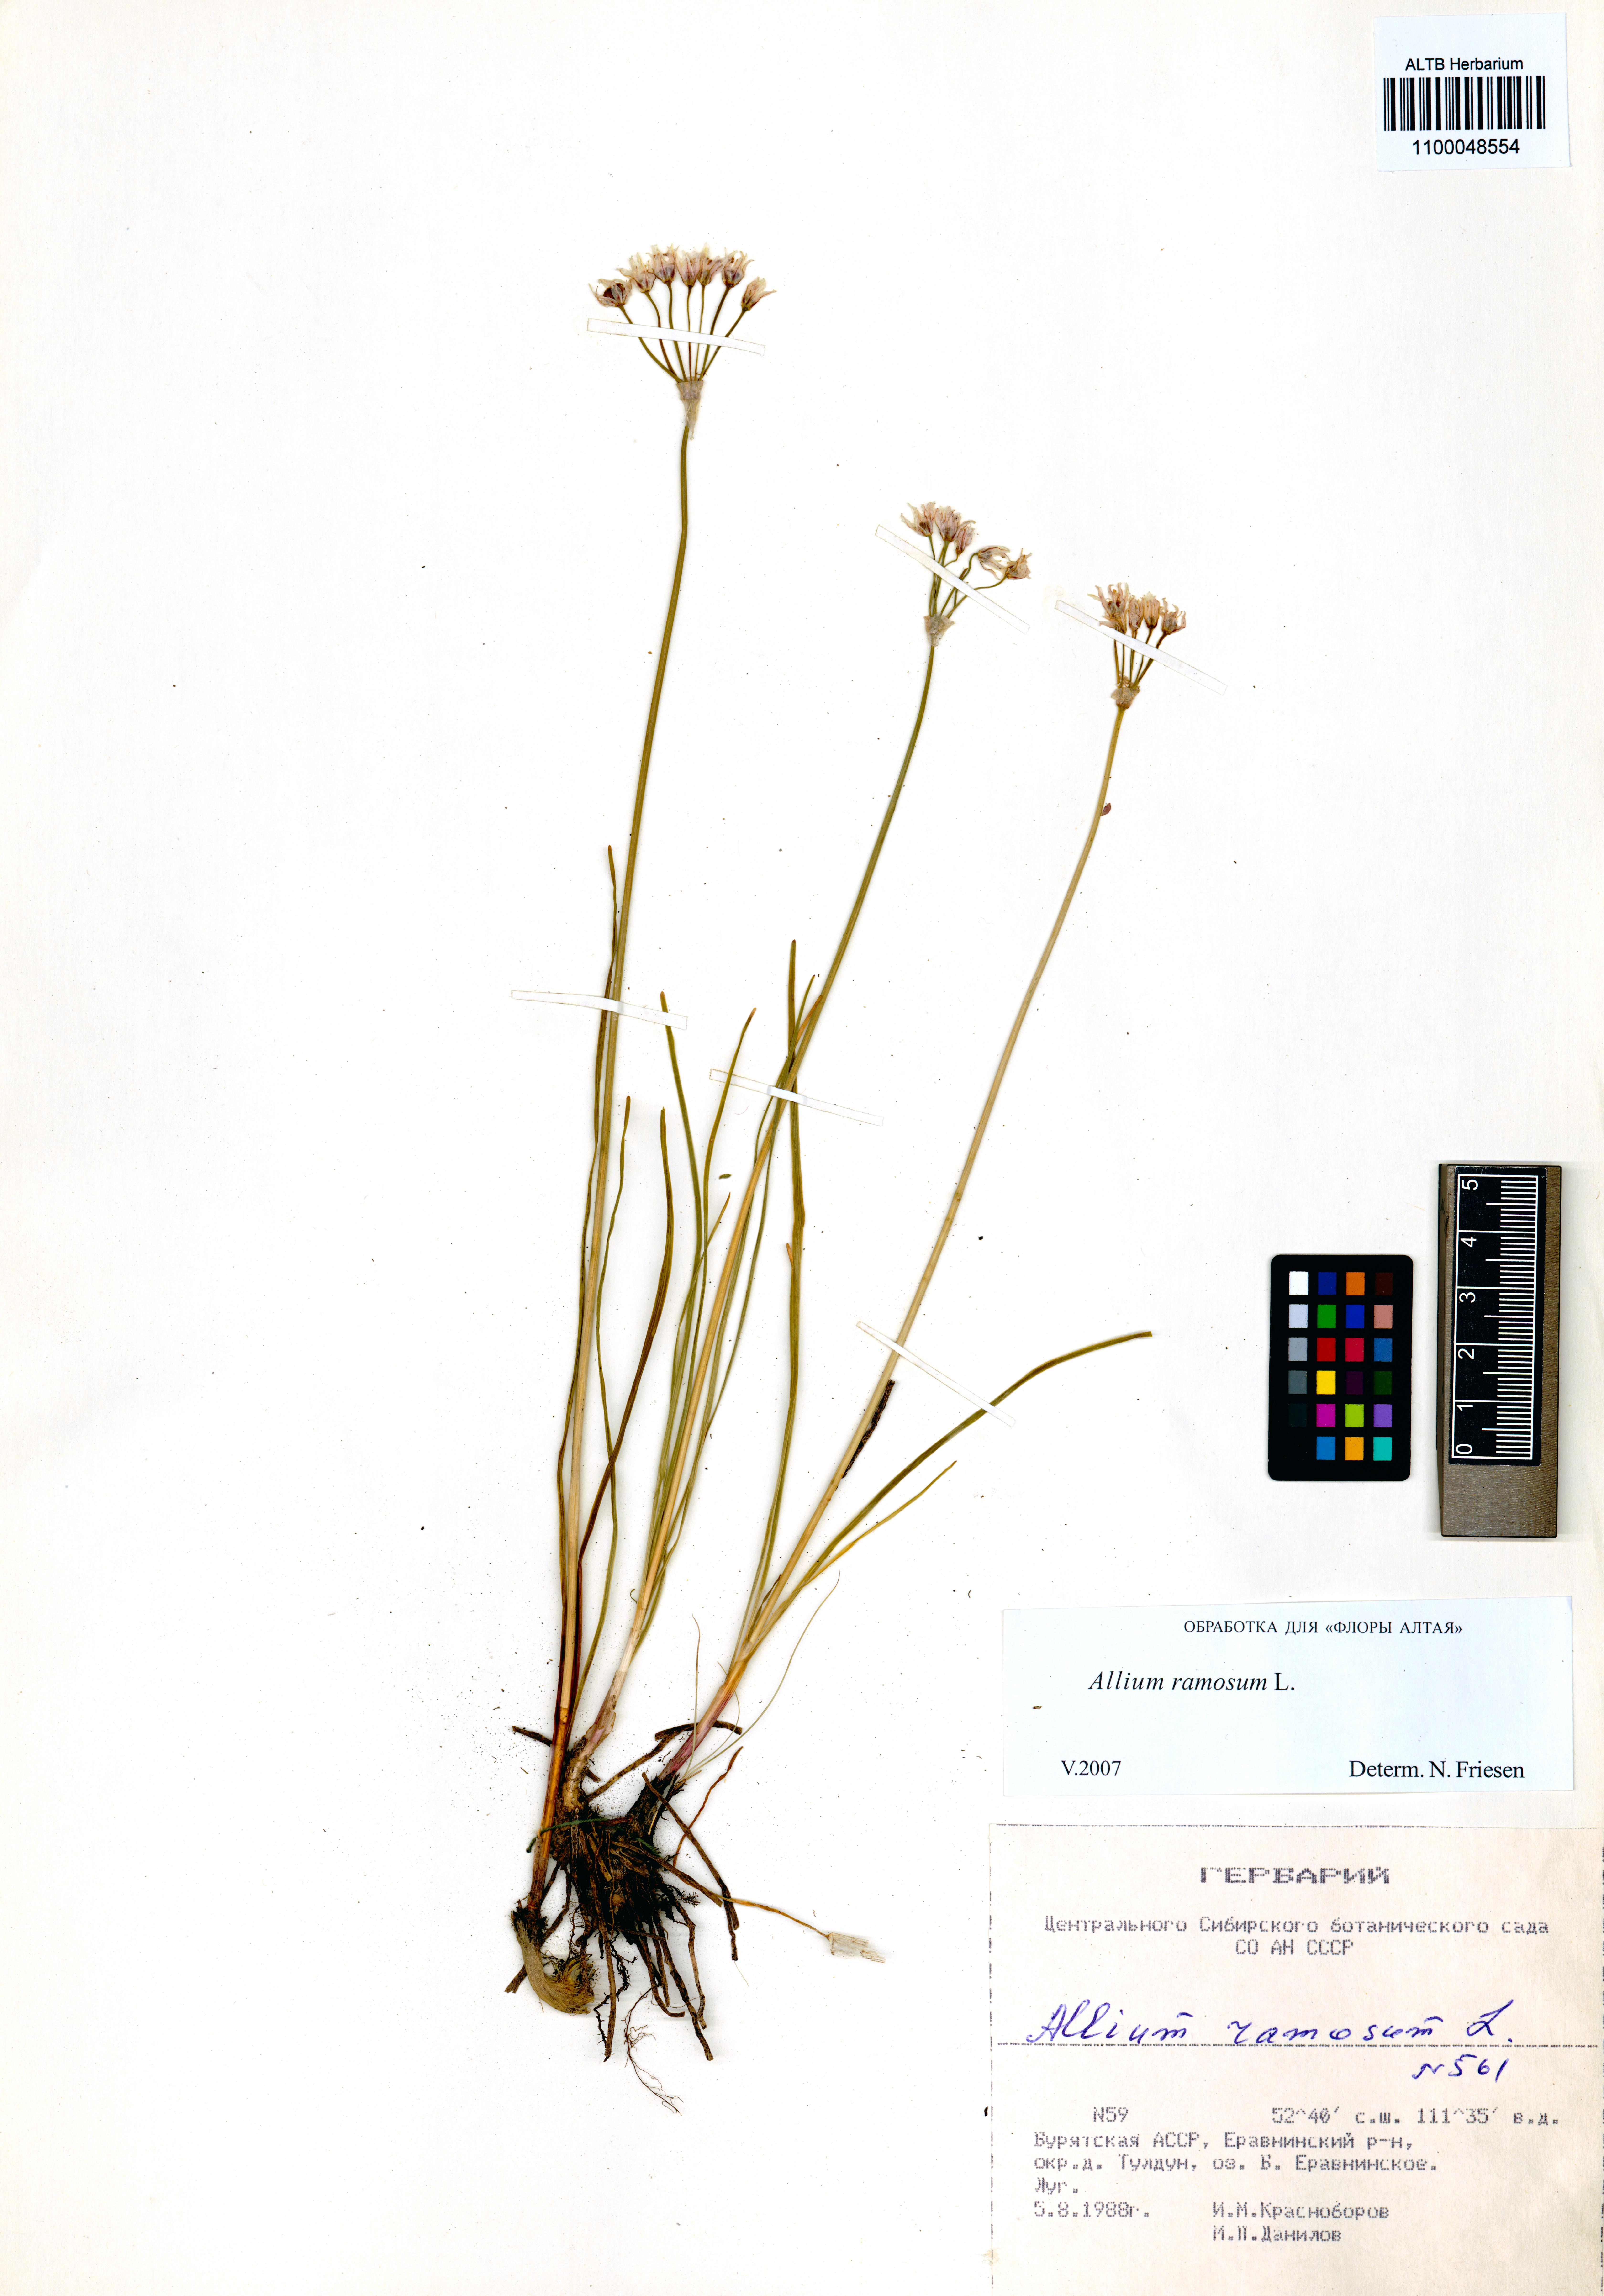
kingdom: Plantae
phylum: Tracheophyta
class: Liliopsida
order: Asparagales
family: Amaryllidaceae
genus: Allium
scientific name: Allium ramosum
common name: Fragrant garlic
